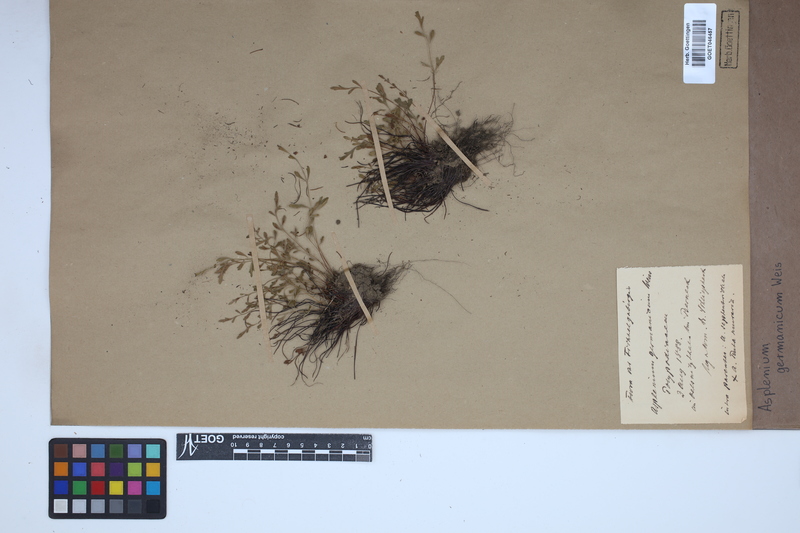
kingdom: Plantae
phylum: Tracheophyta
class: Polypodiopsida
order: Polypodiales
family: Aspleniaceae
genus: Asplenium
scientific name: Asplenium
